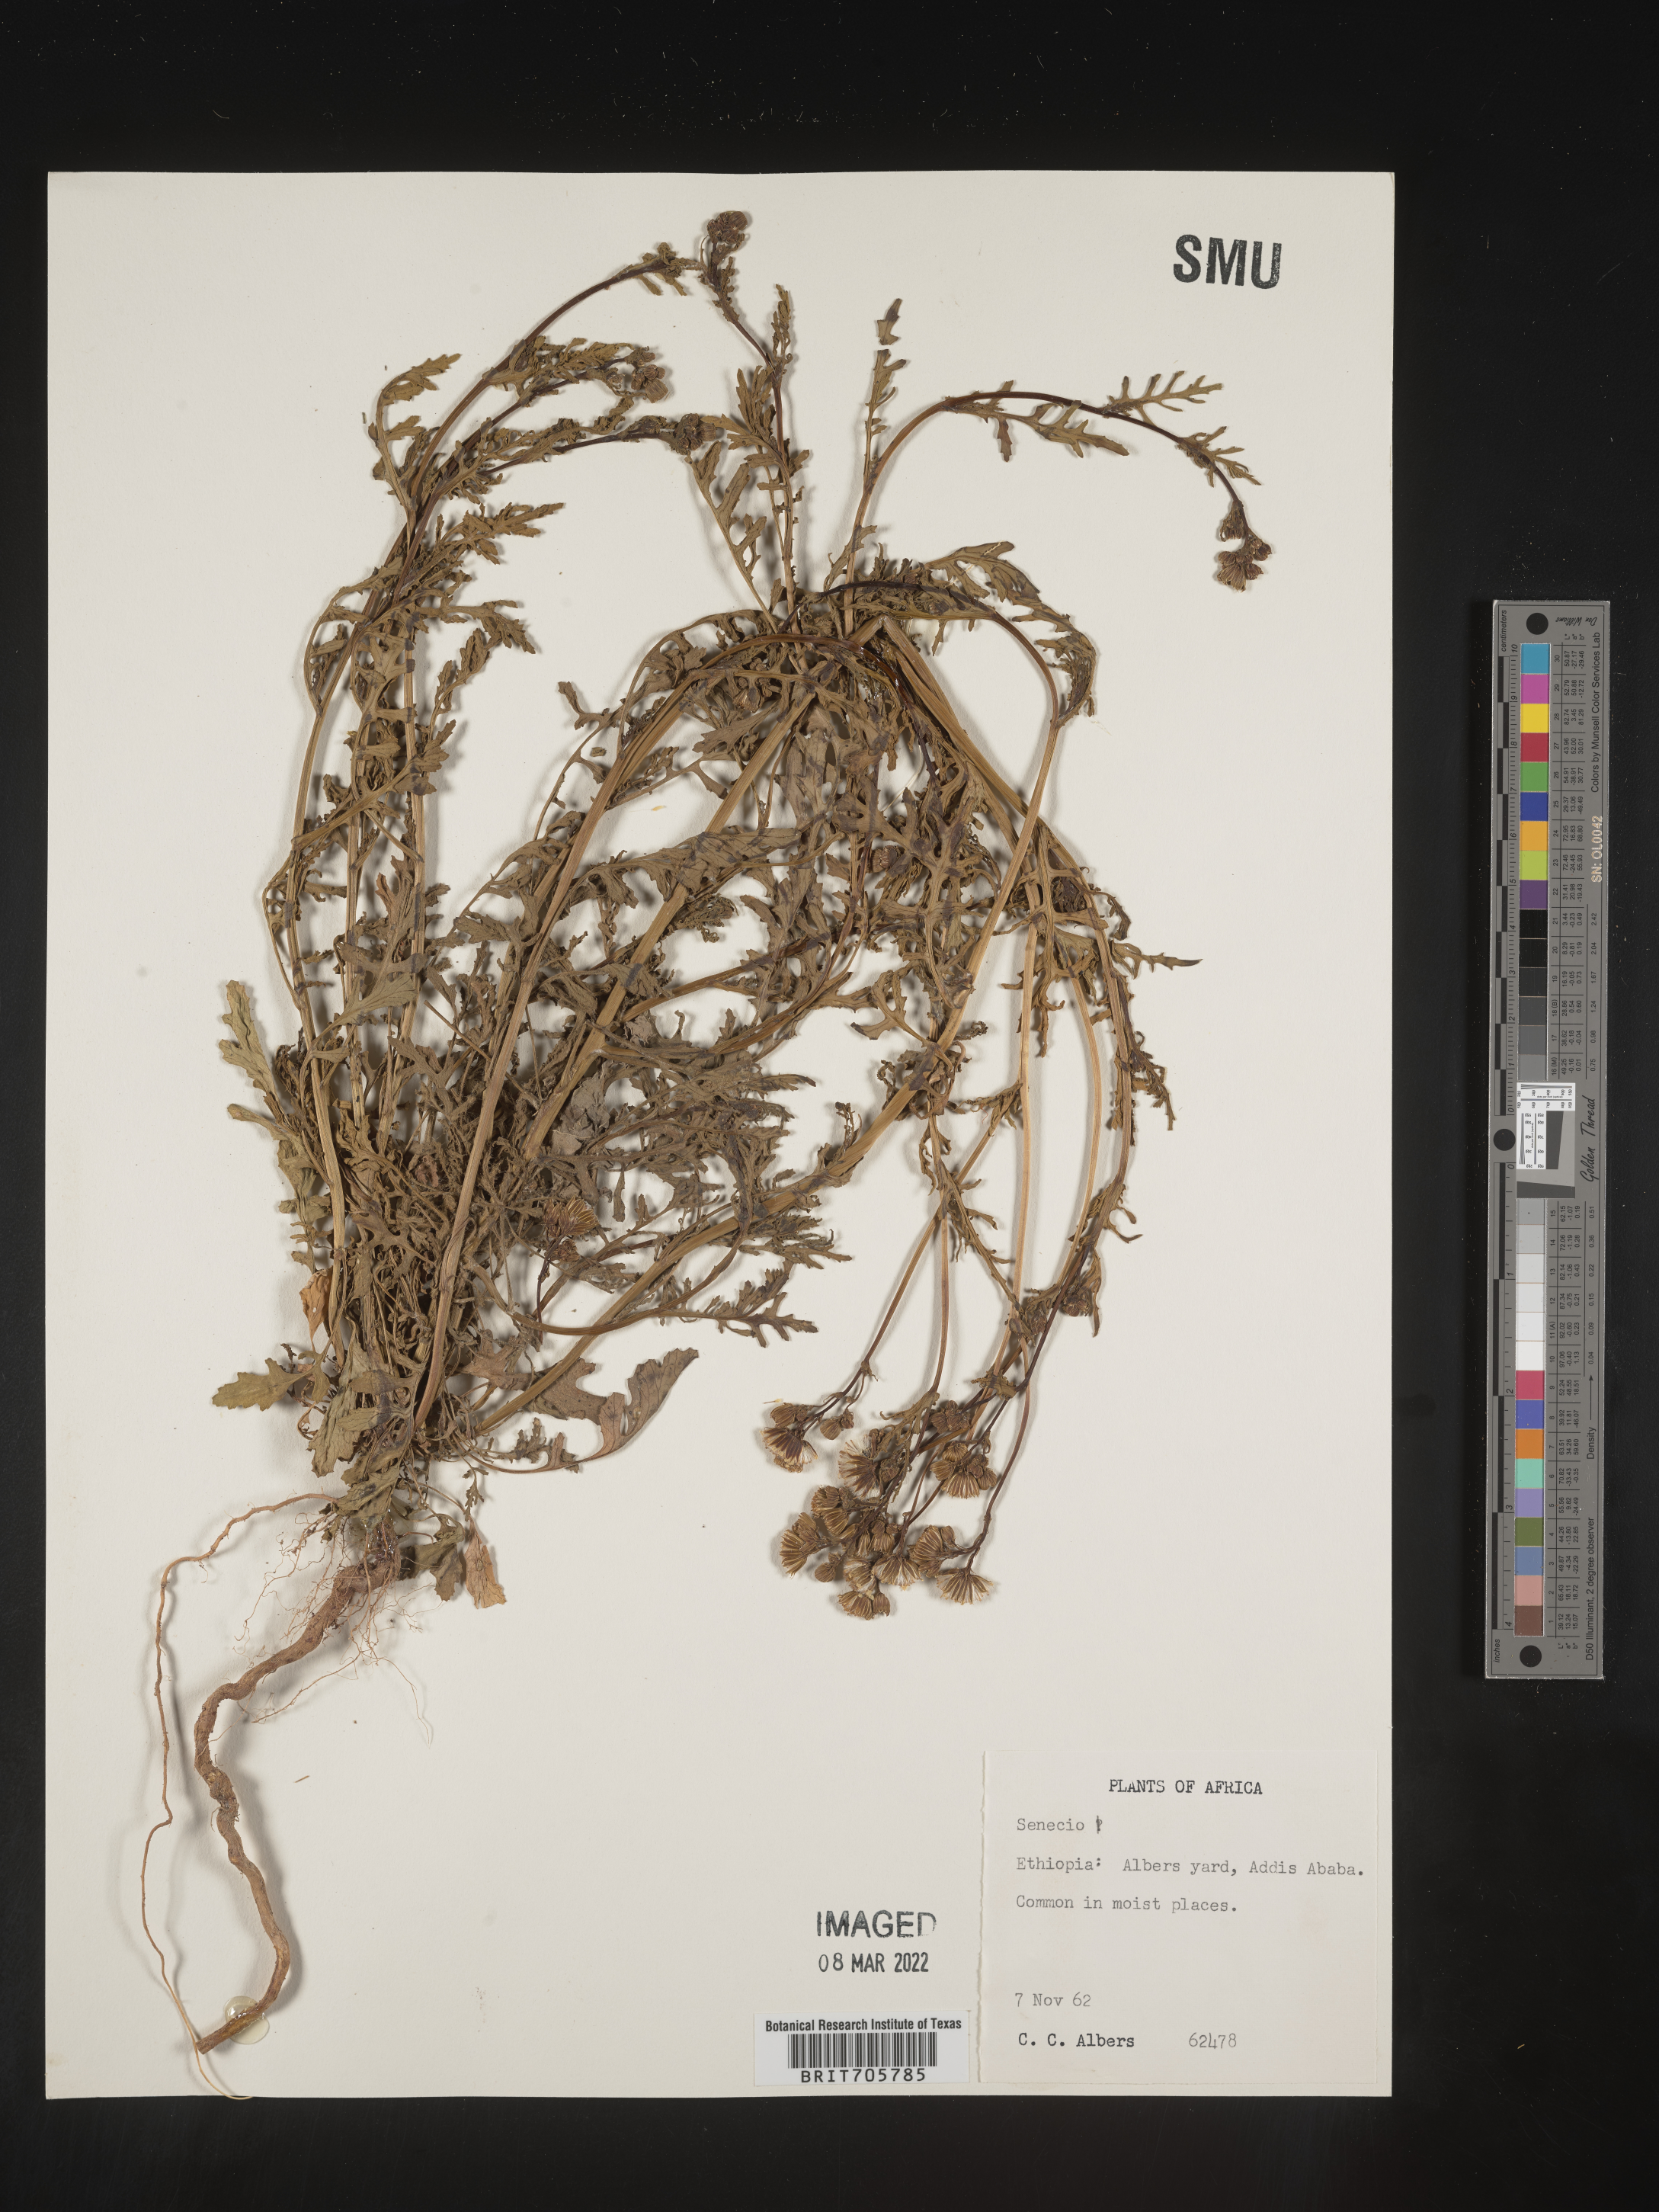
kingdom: Plantae
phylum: Tracheophyta
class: Magnoliopsida
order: Asterales
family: Asteraceae
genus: Senecio
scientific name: Senecio
